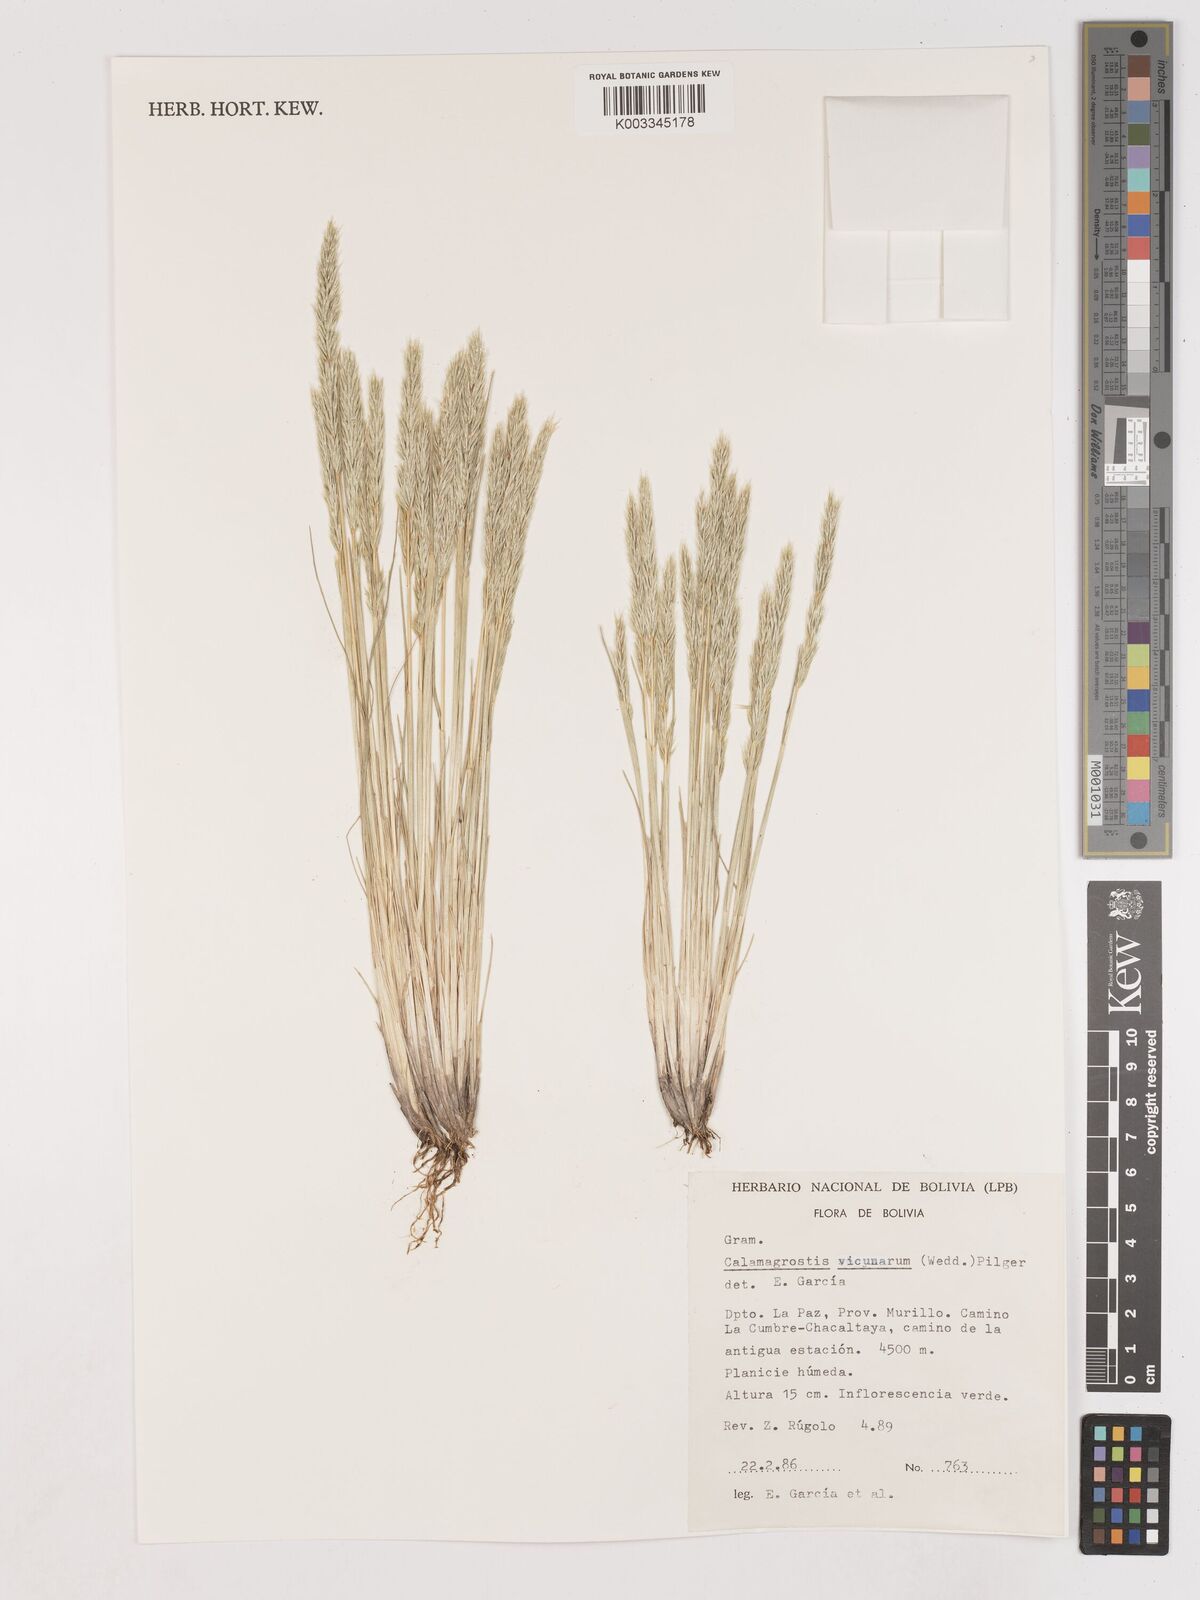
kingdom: Plantae
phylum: Tracheophyta
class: Liliopsida
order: Poales
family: Poaceae
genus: Calamagrostis
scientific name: Calamagrostis
